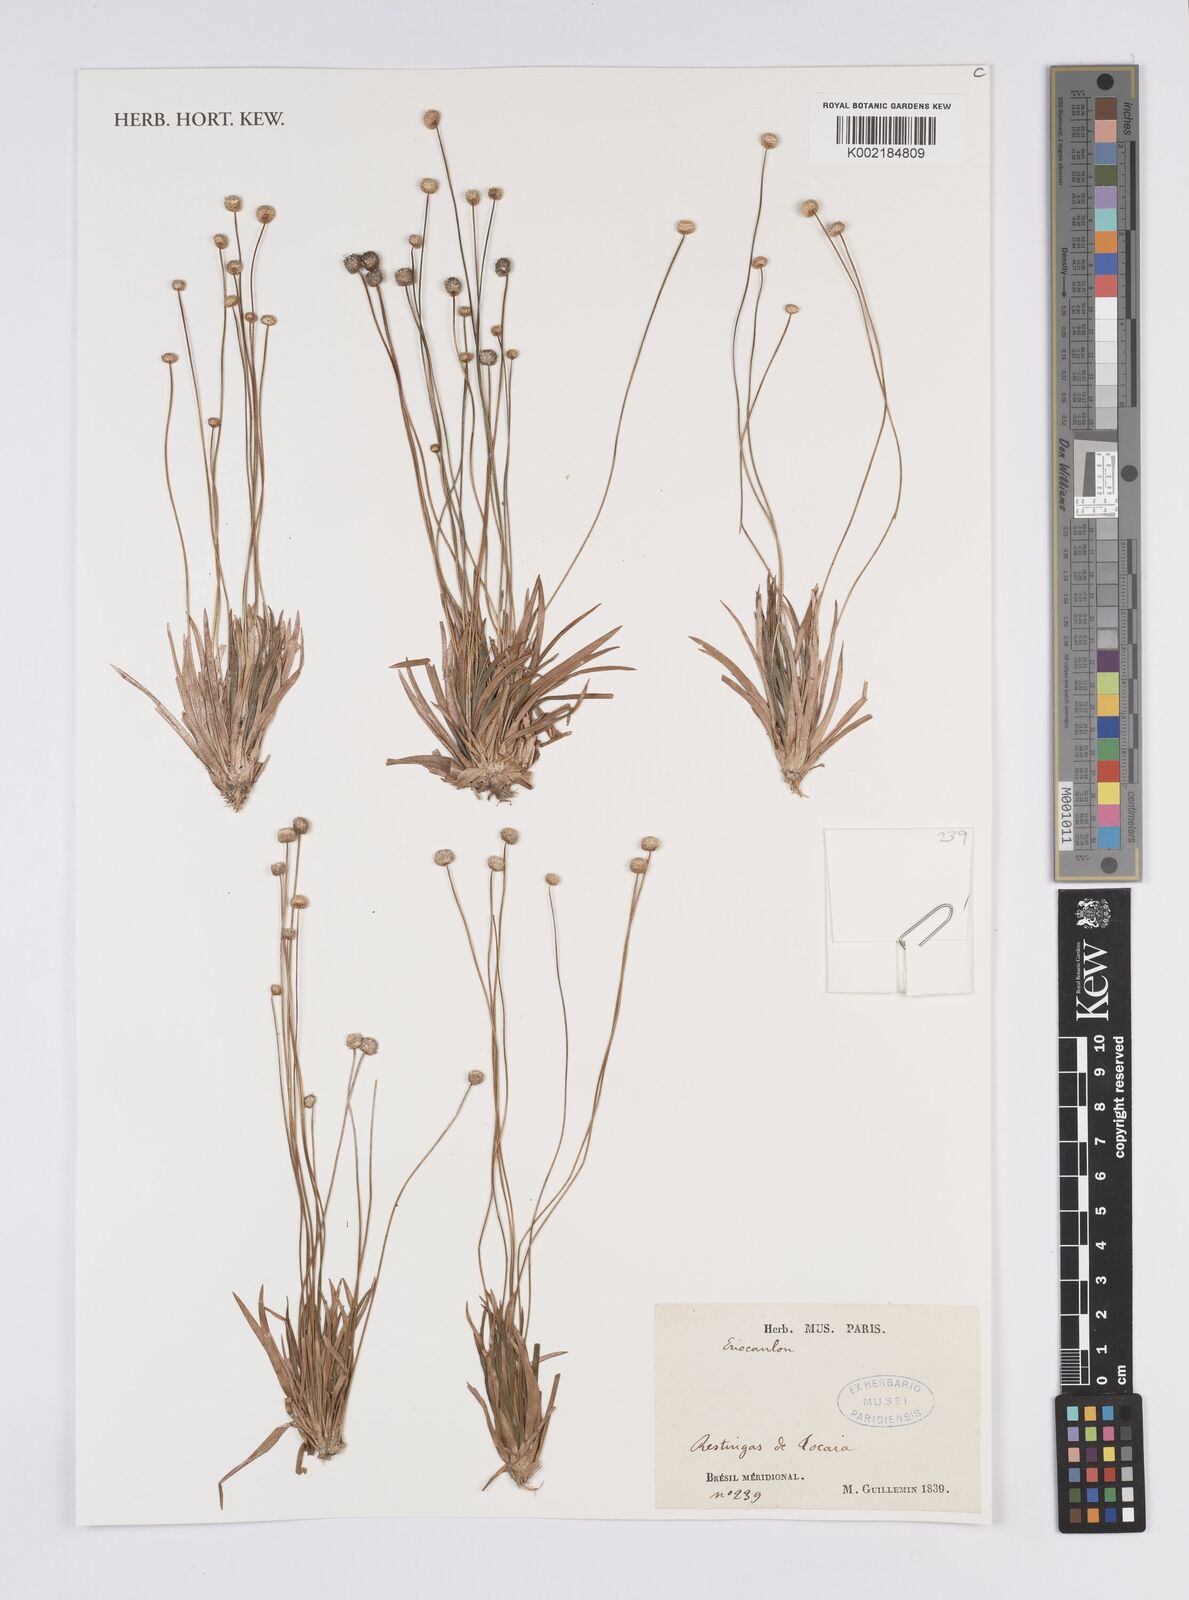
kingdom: Plantae
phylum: Tracheophyta
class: Liliopsida
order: Poales
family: Eriocaulaceae
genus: Eriocaulon
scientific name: Eriocaulon
